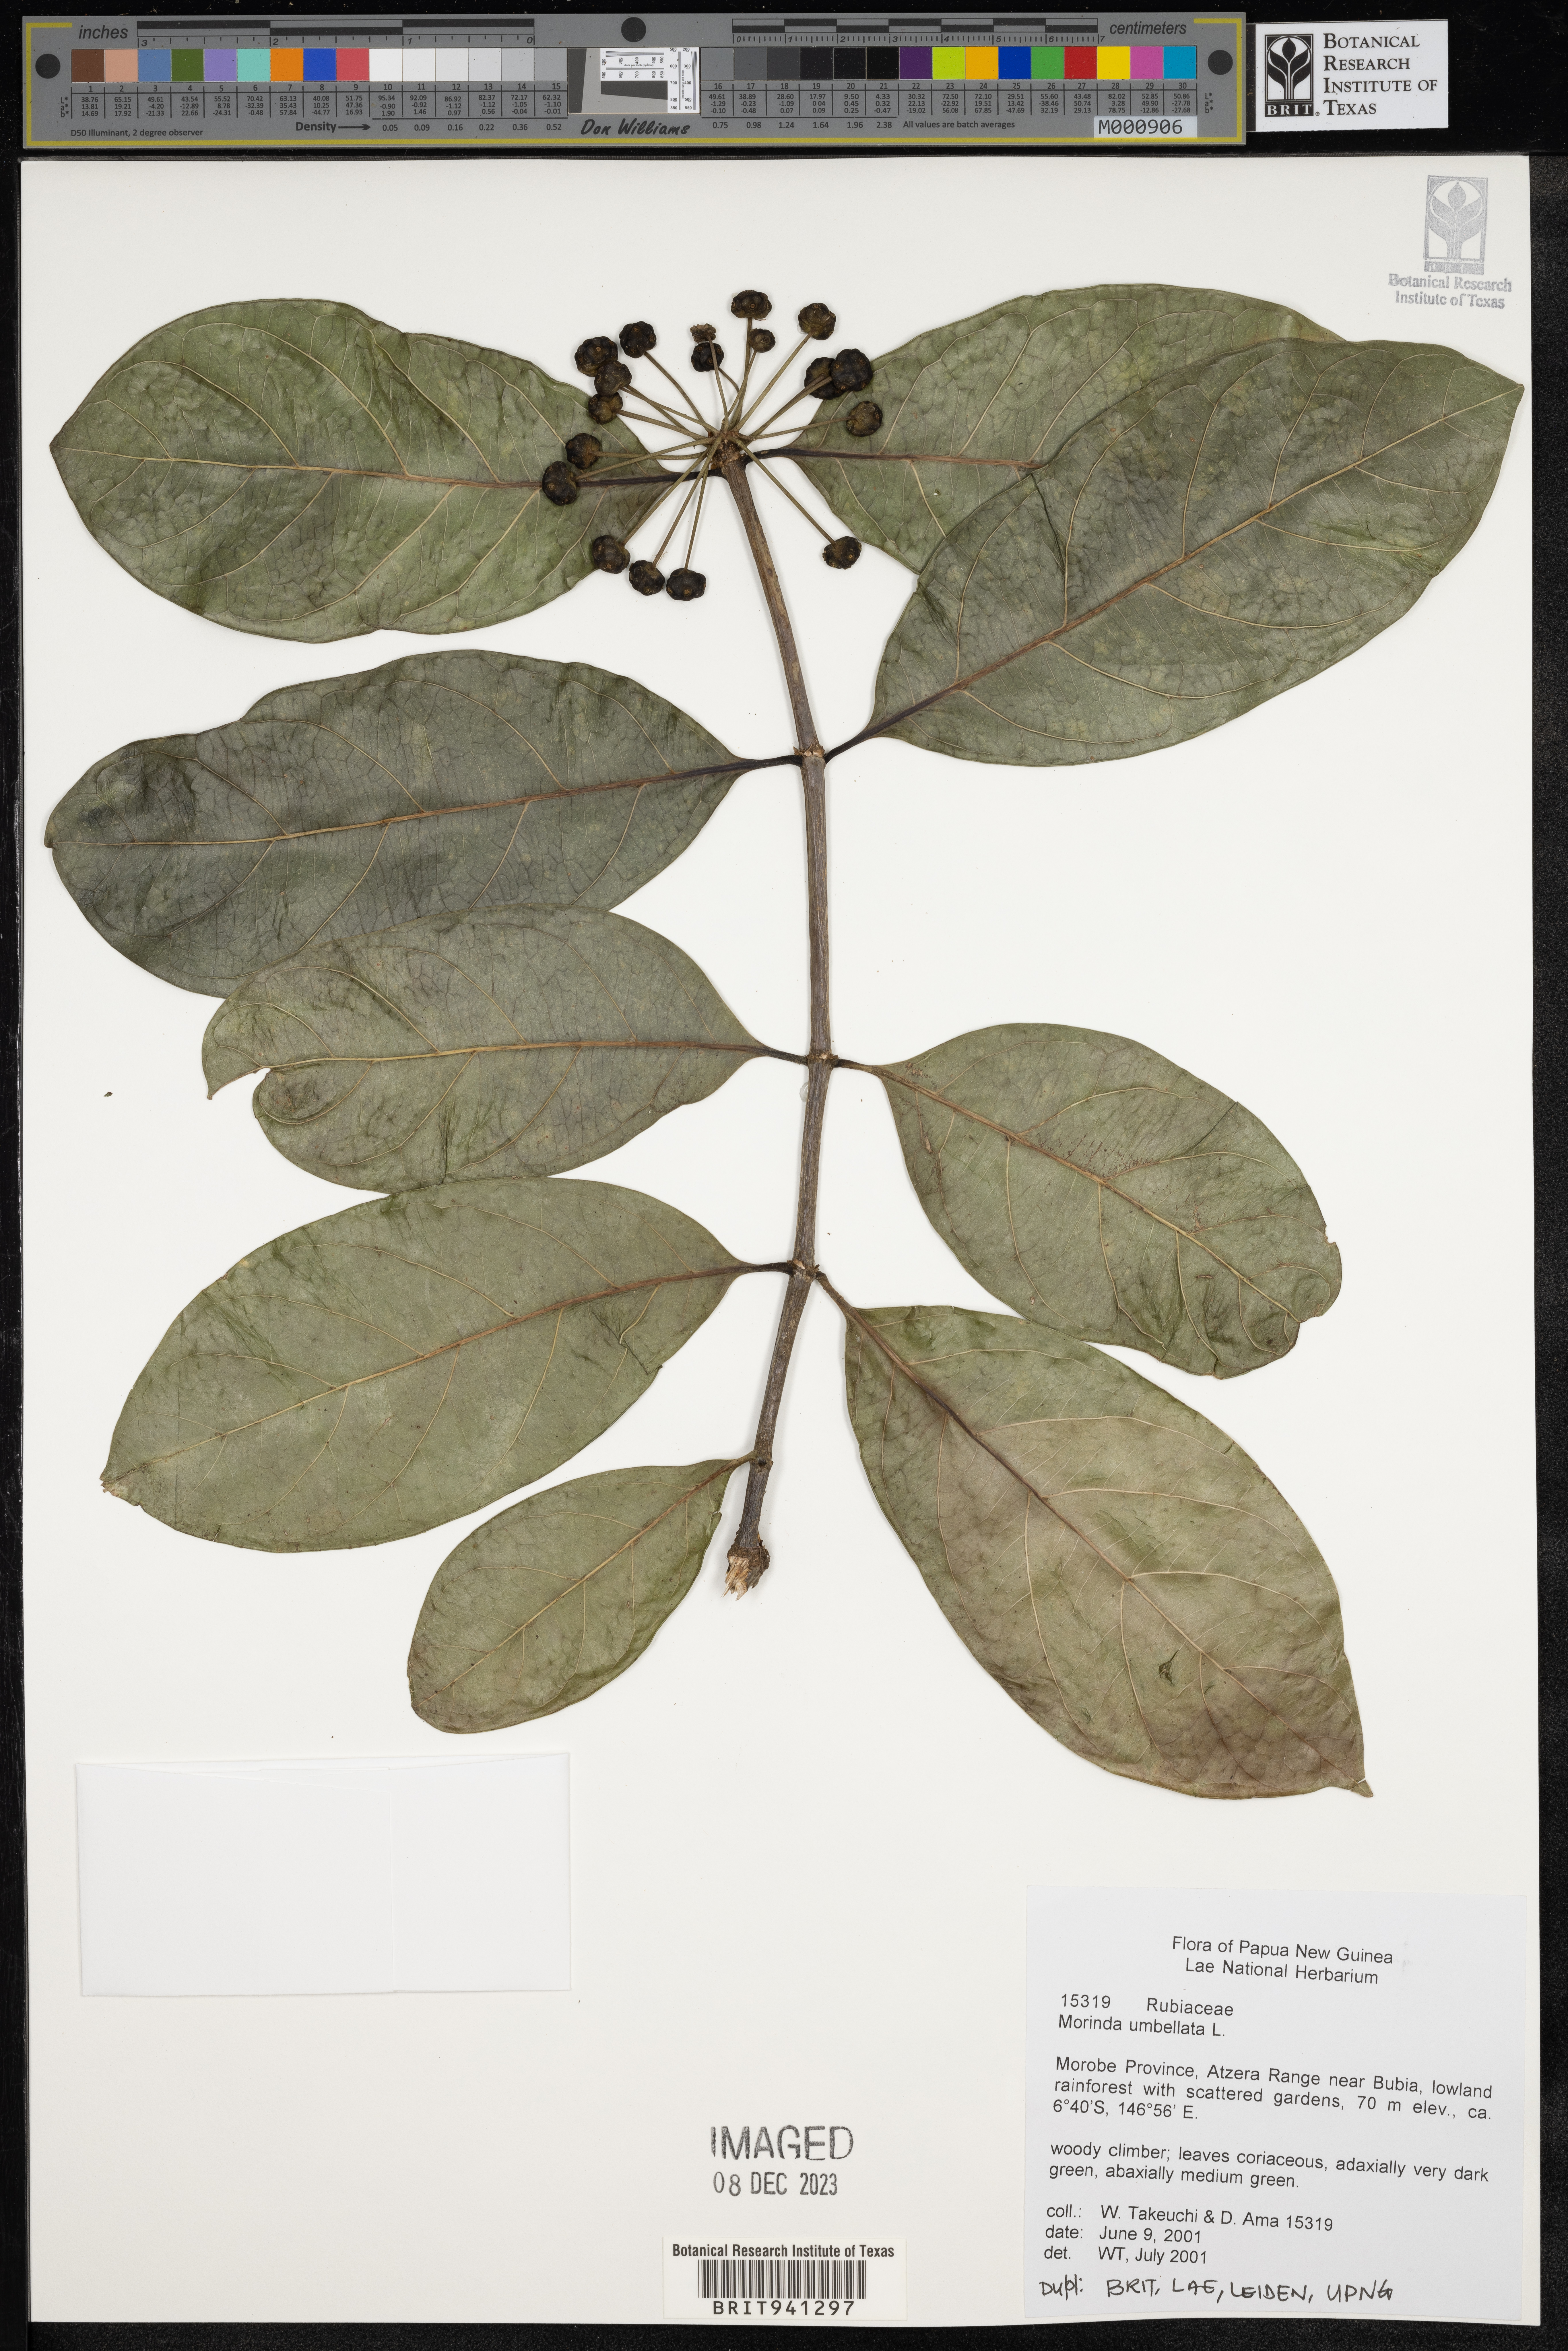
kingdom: Plantae
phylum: Tracheophyta
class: Magnoliopsida
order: Gentianales
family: Rubiaceae
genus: Morinda
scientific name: Morinda
